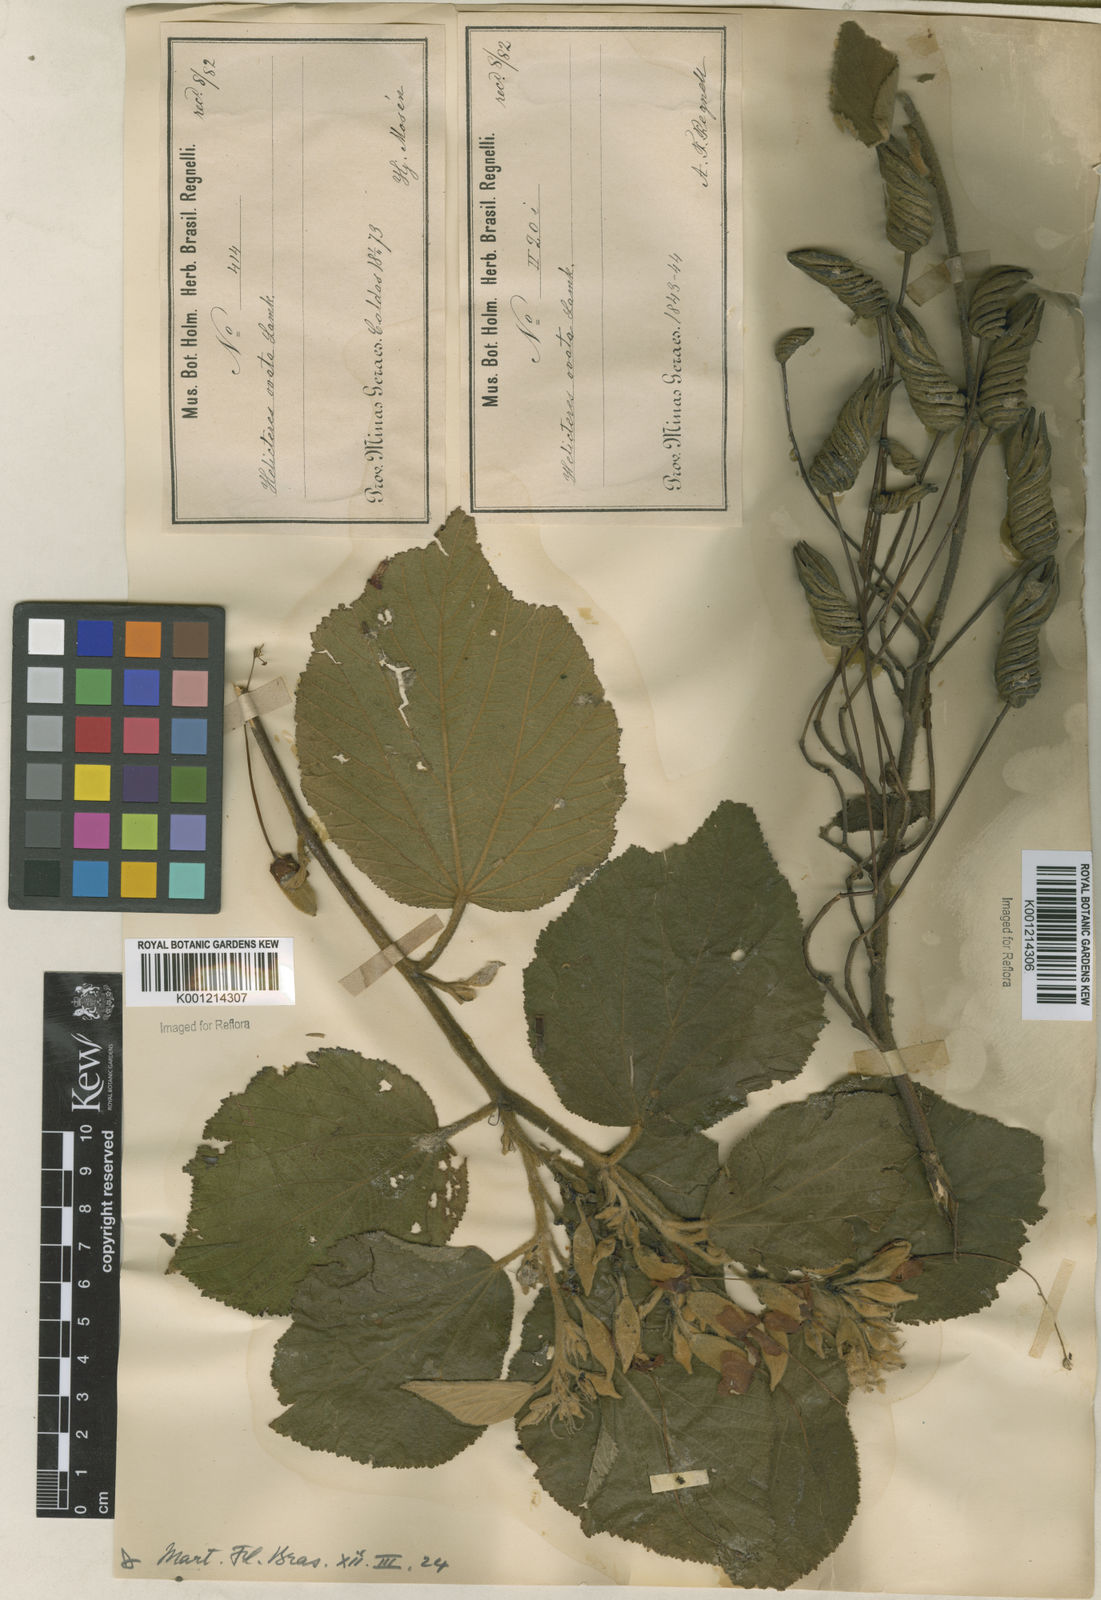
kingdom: Plantae
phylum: Tracheophyta
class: Magnoliopsida
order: Malvales
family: Malvaceae
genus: Helicteres
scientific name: Helicteres ovata
